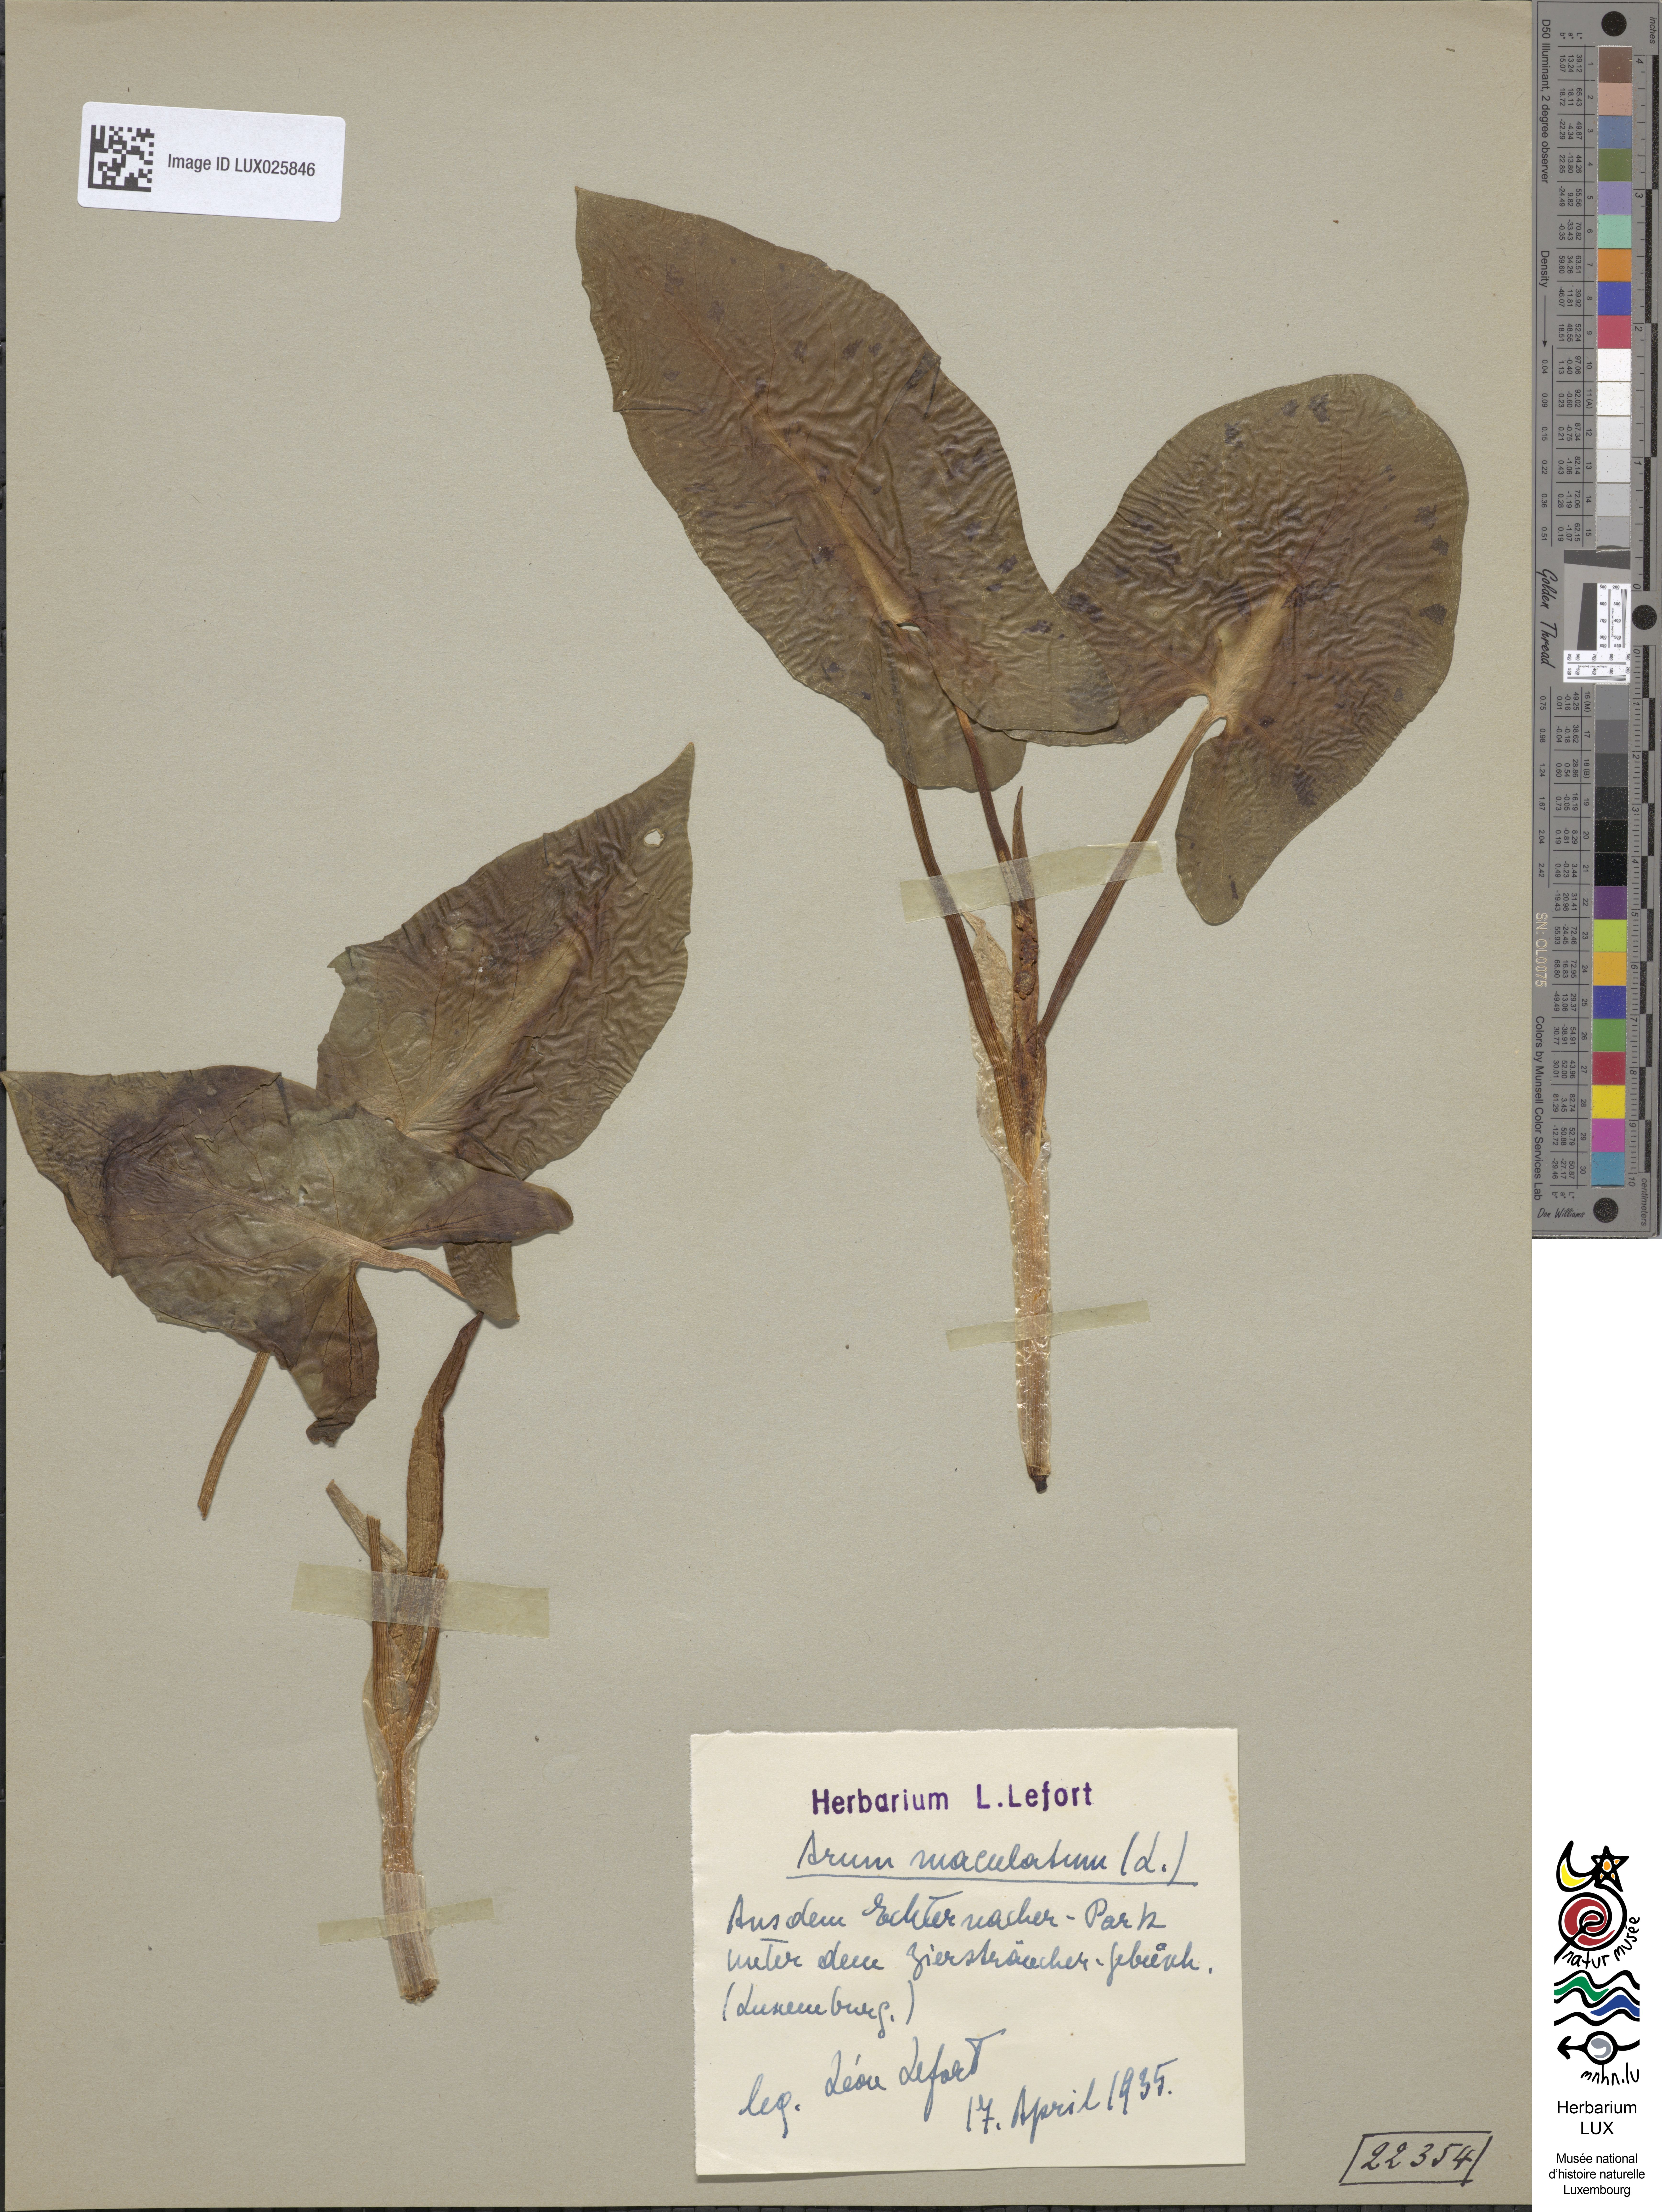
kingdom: Plantae
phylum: Tracheophyta
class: Liliopsida
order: Alismatales
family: Araceae
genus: Arum
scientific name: Arum maculatum
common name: Lords-and-ladies
